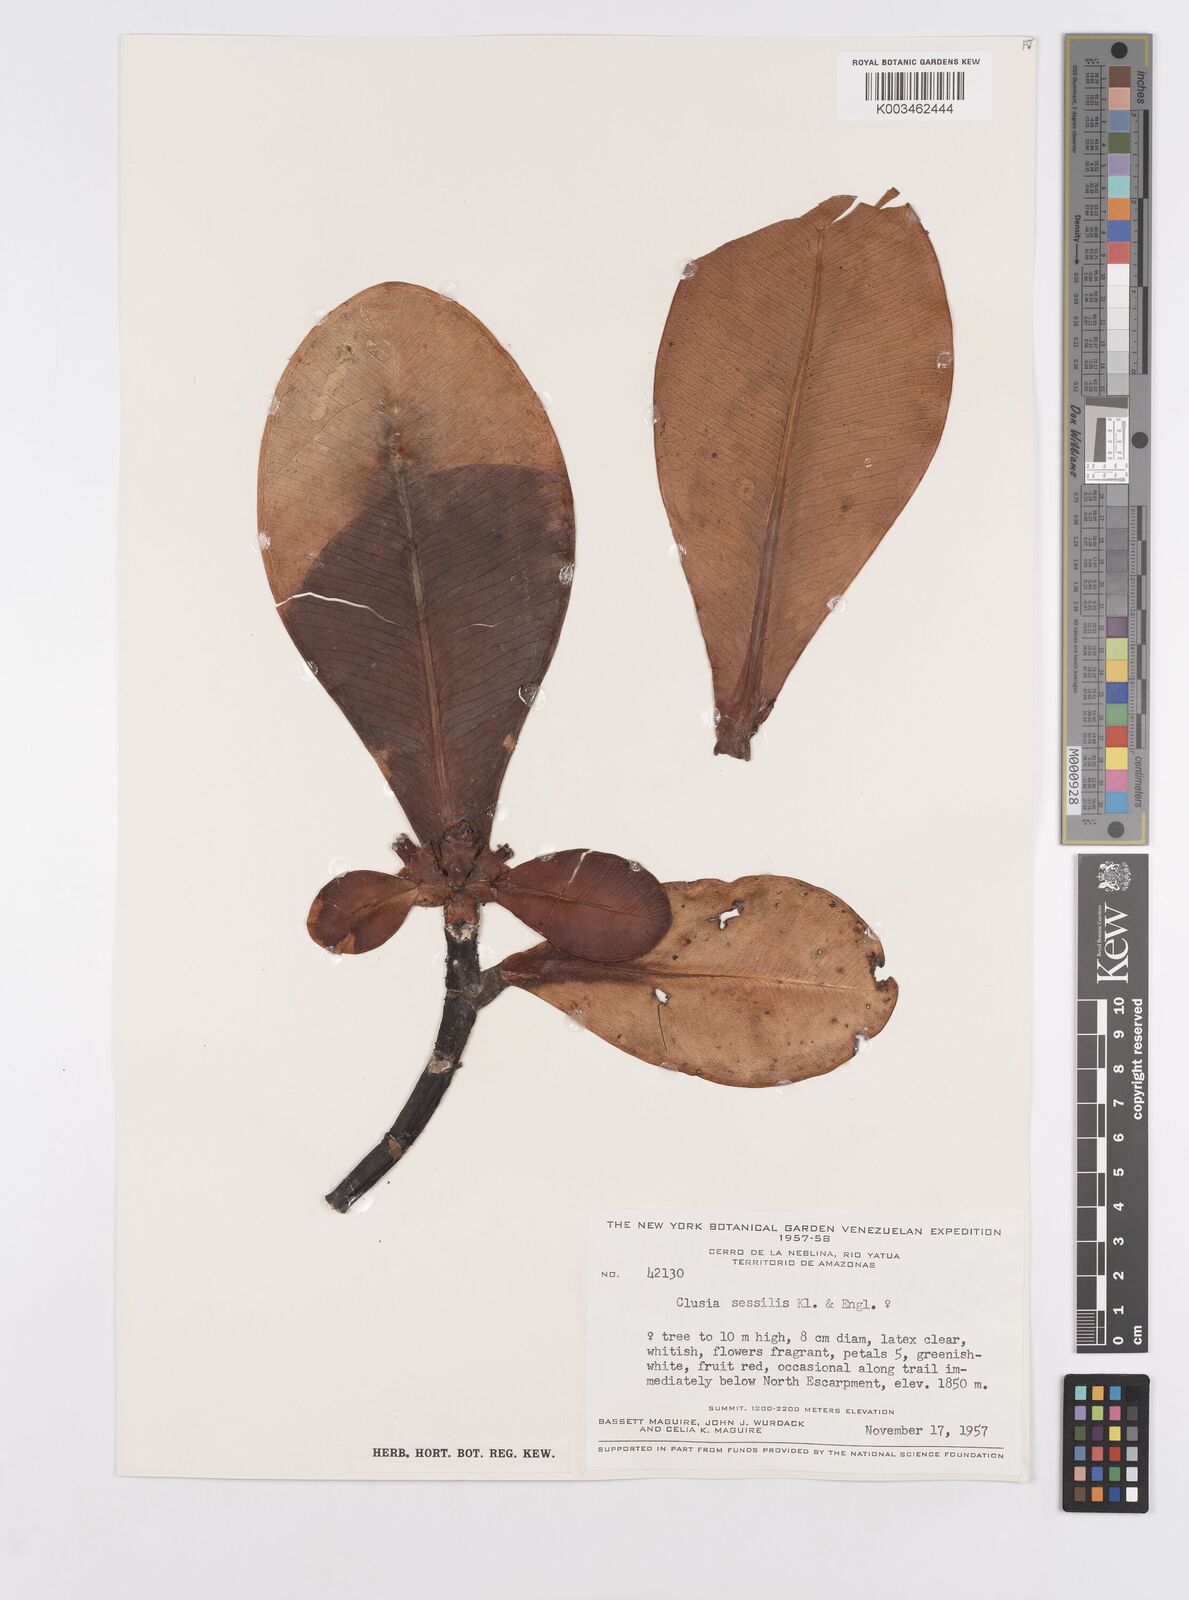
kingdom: Plantae
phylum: Tracheophyta
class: Magnoliopsida
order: Malpighiales
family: Clusiaceae
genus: Garcinia
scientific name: Garcinia sessilis
